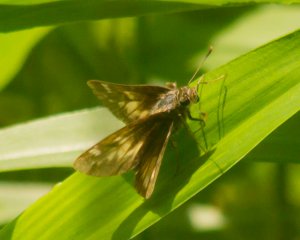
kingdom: Animalia
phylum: Arthropoda
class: Insecta
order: Lepidoptera
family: Hesperiidae
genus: Polites
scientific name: Polites coras
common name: Peck's Skipper
